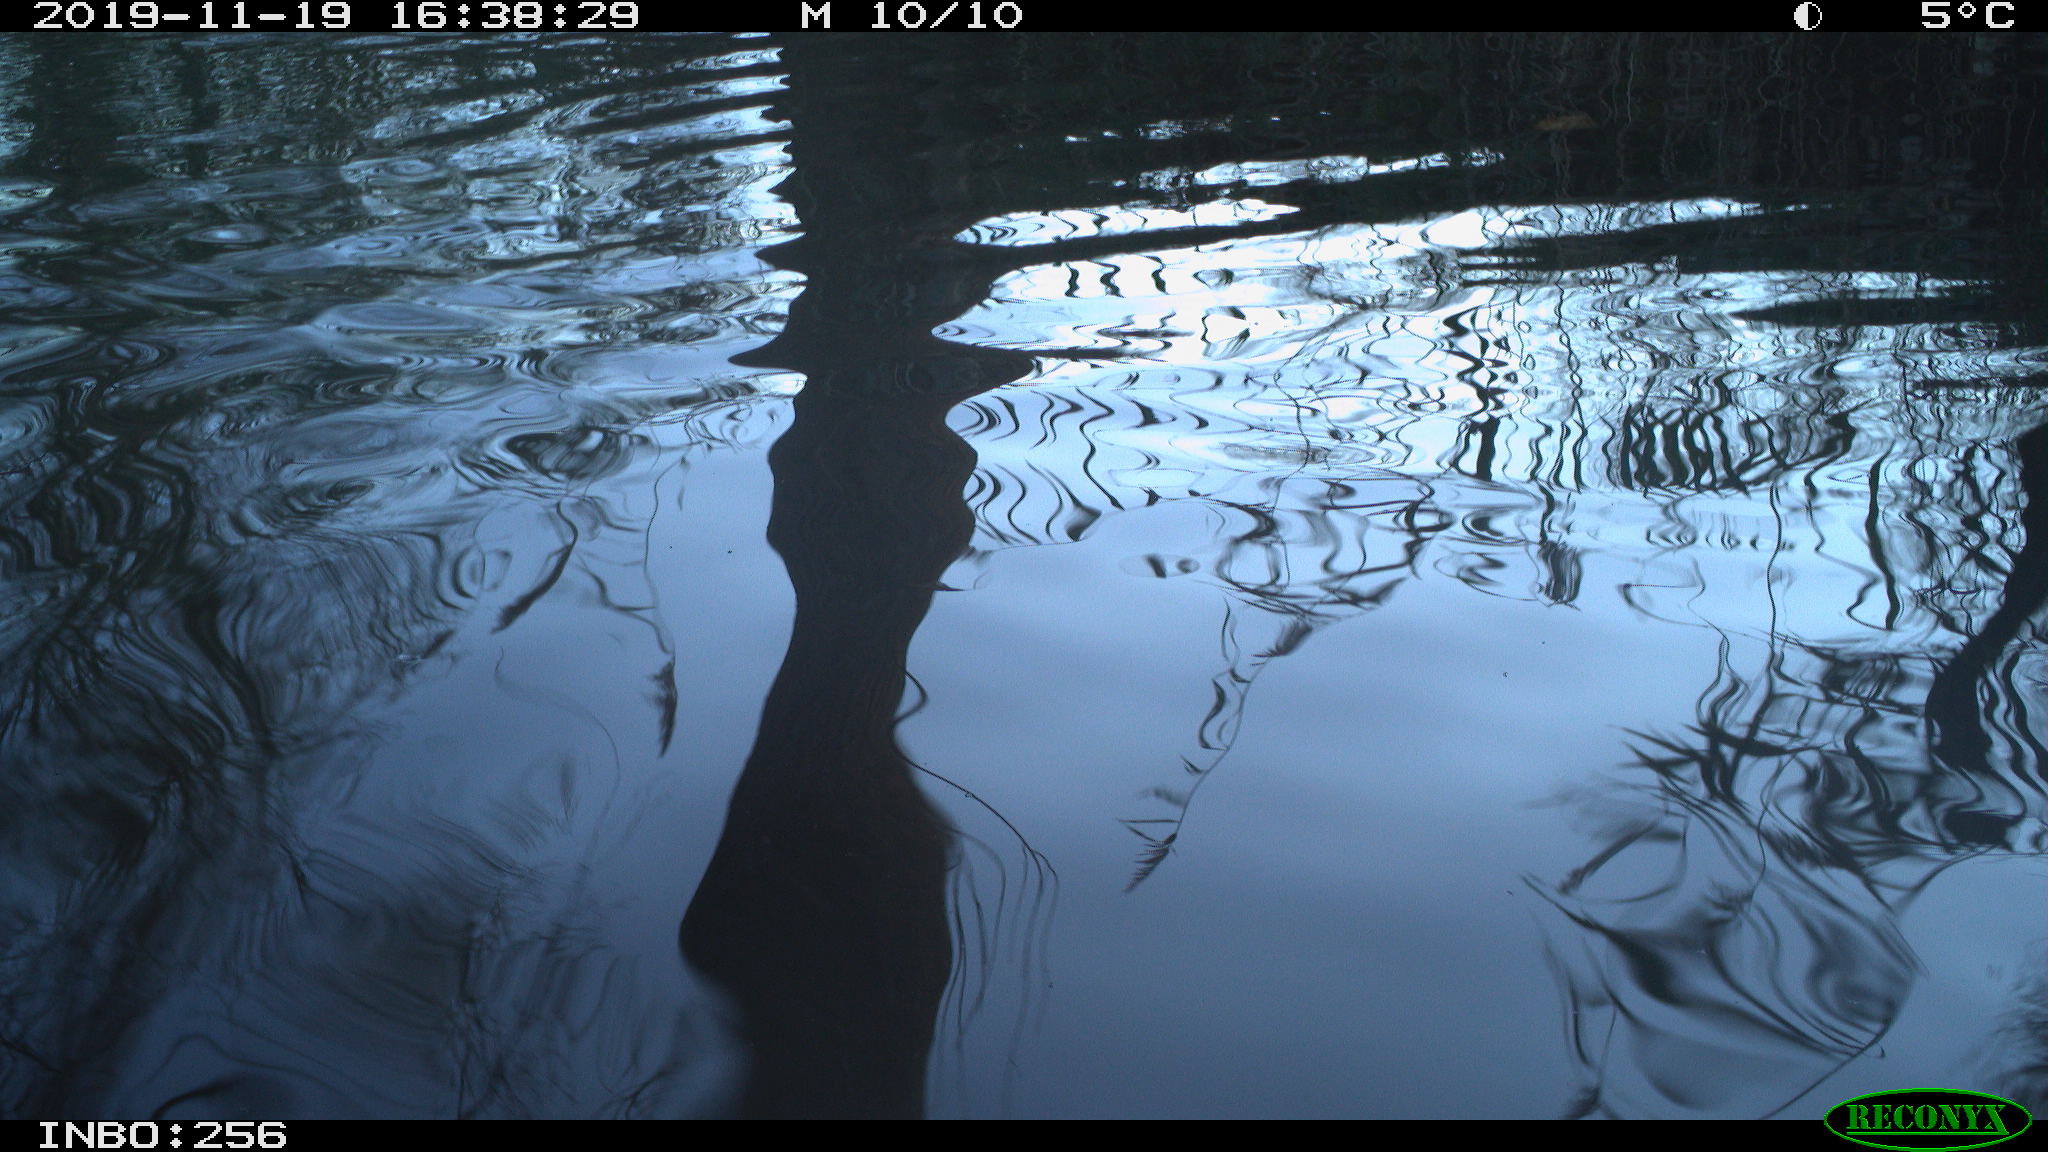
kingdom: Animalia
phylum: Chordata
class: Aves
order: Anseriformes
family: Anatidae
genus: Anas
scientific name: Anas platyrhynchos
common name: Mallard
